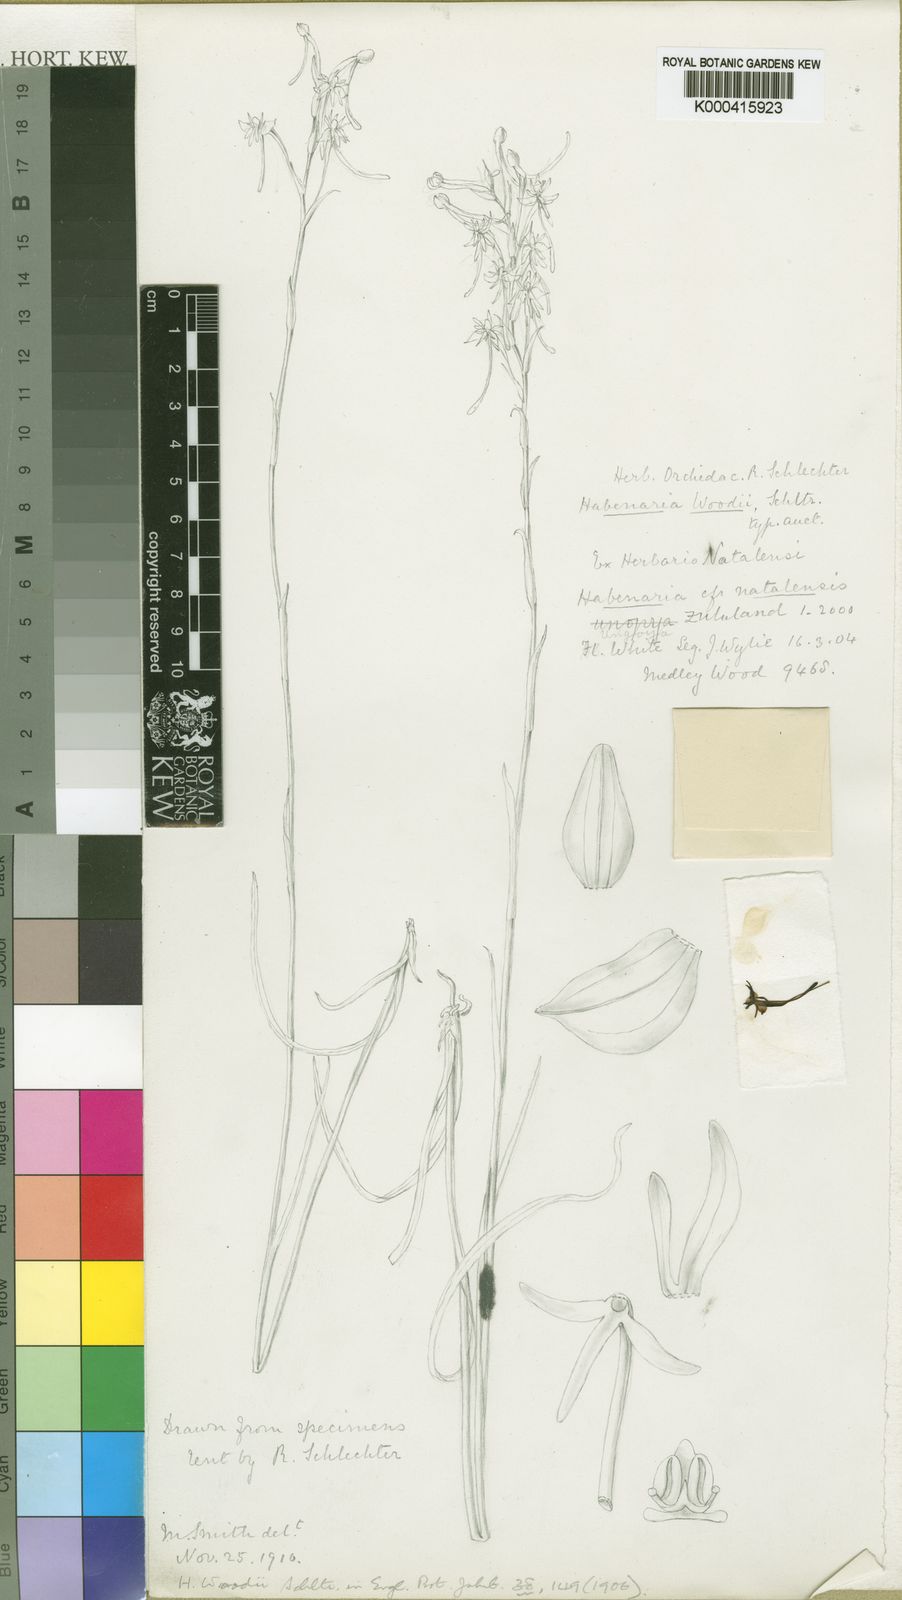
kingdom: Plantae
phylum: Tracheophyta
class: Liliopsida
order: Asparagales
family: Orchidaceae
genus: Habenaria
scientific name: Habenaria woodii
